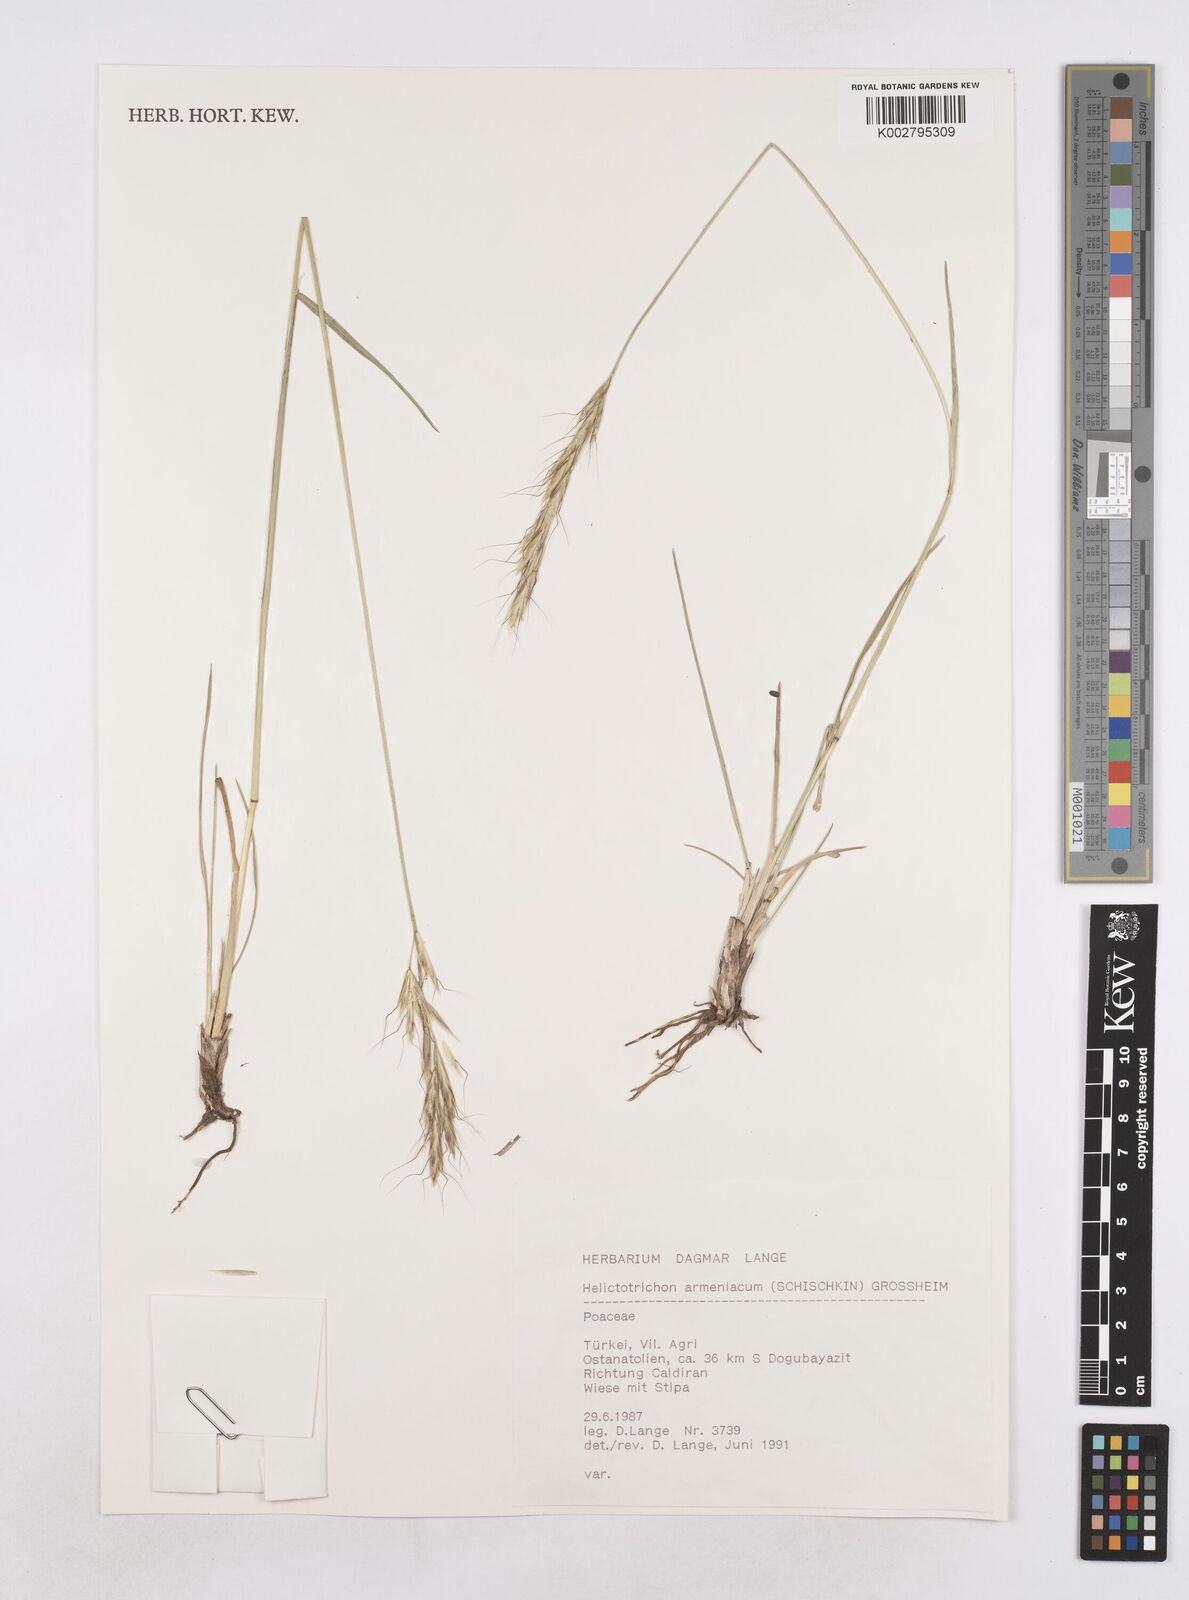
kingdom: Plantae
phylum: Tracheophyta
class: Liliopsida
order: Poales
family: Poaceae
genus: Helictochloa
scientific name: Helictochloa armeniaca
